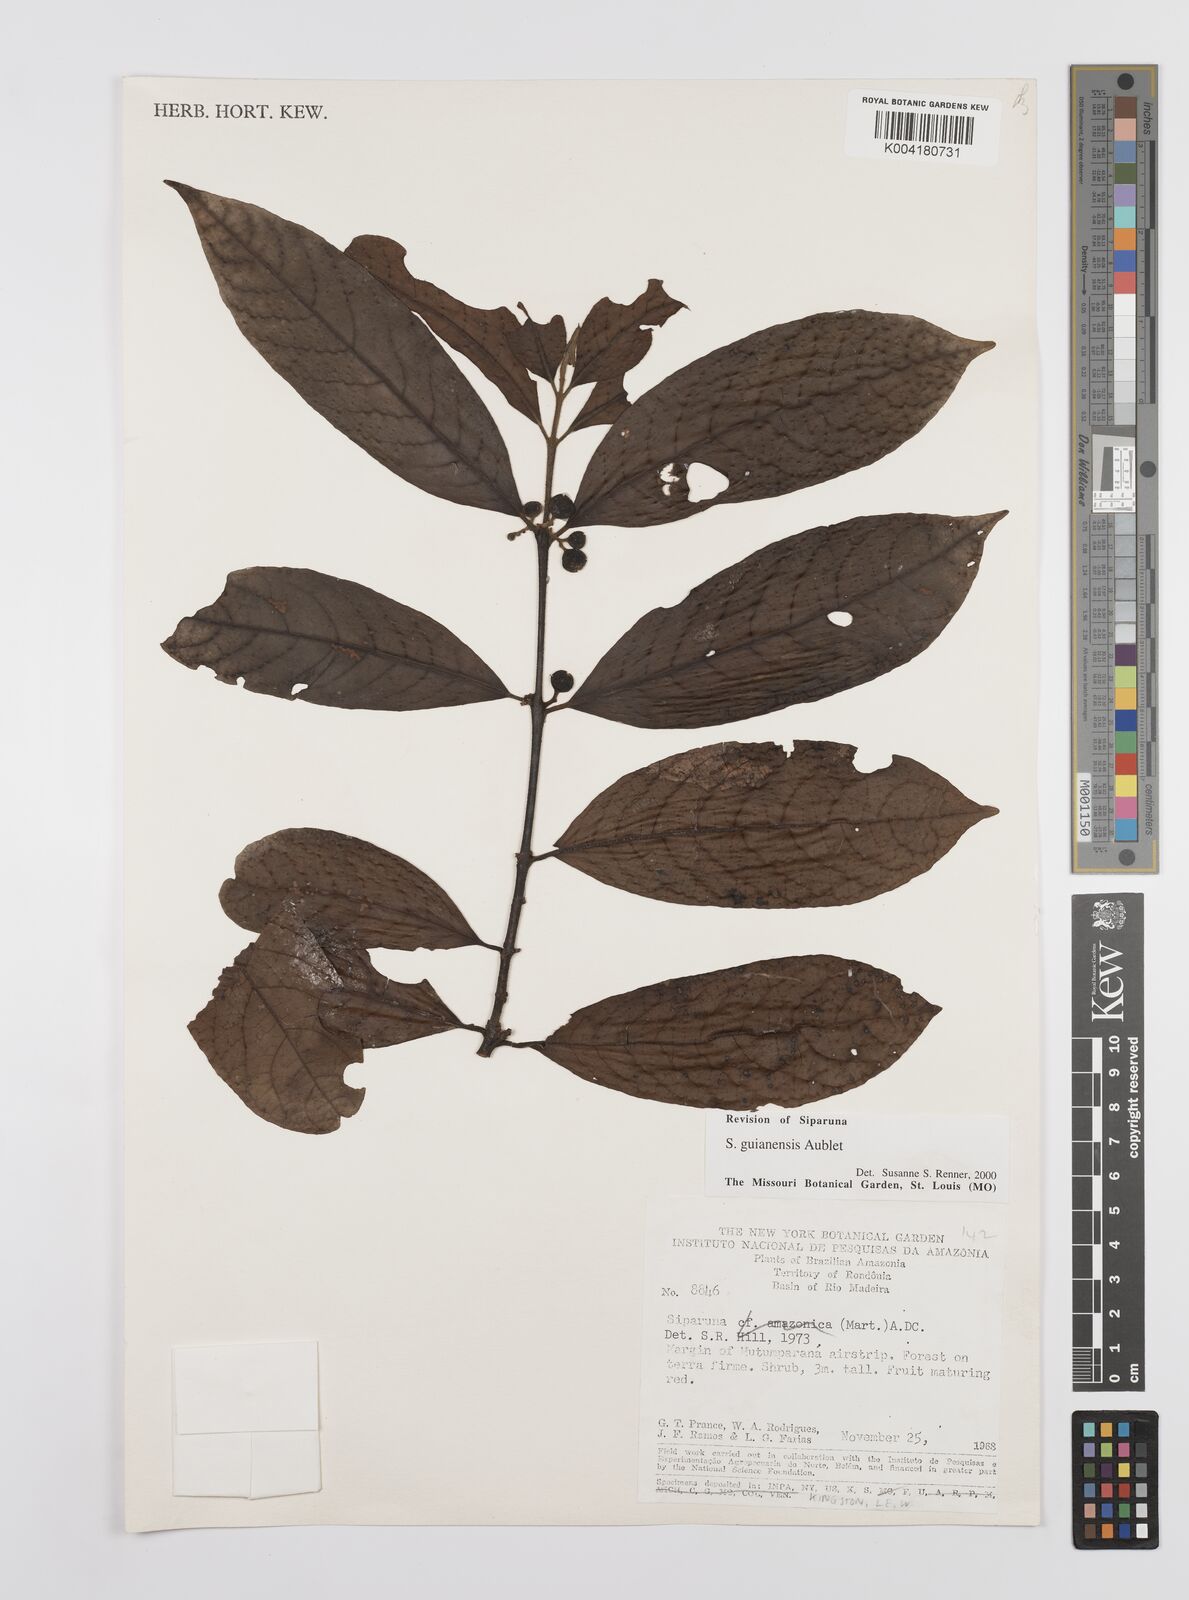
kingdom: Plantae
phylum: Tracheophyta
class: Magnoliopsida
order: Laurales
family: Siparunaceae
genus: Siparuna
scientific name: Siparuna guianensis
